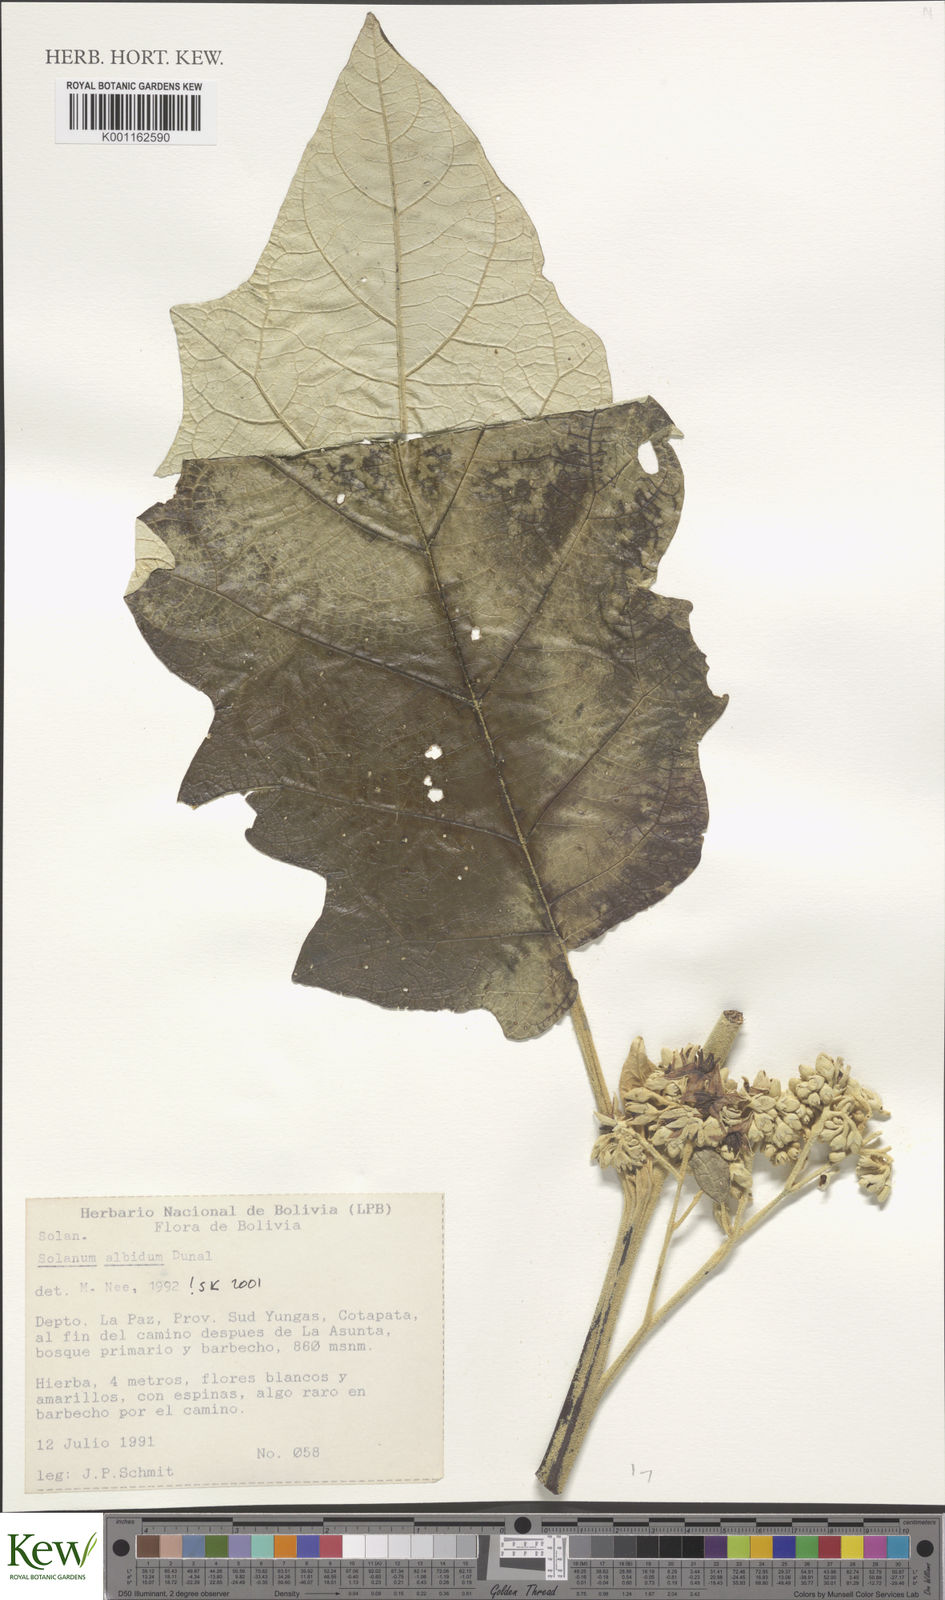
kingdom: Plantae
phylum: Tracheophyta
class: Magnoliopsida
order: Solanales
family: Solanaceae
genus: Solanum
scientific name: Solanum albidum
